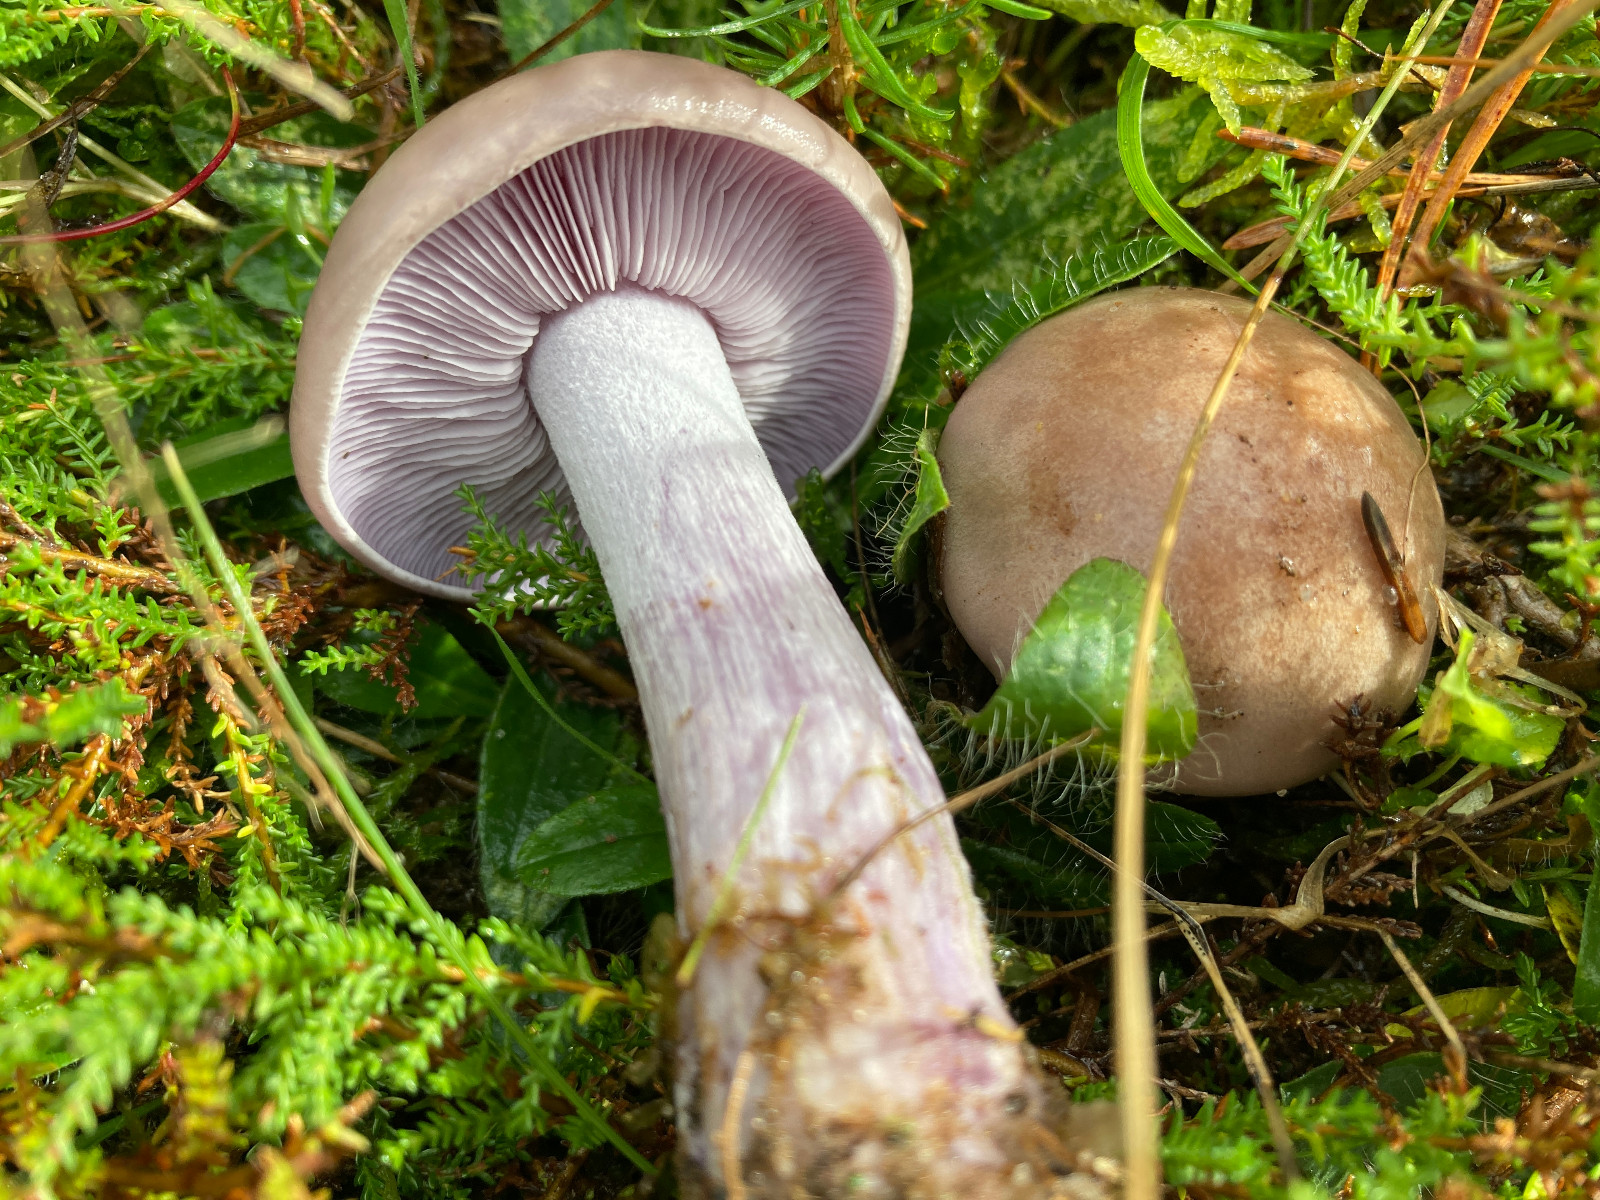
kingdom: Fungi
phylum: Basidiomycota
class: Agaricomycetes
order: Agaricales
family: Tricholomataceae
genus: Lepista
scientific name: Lepista nuda
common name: violet hekseringshat
